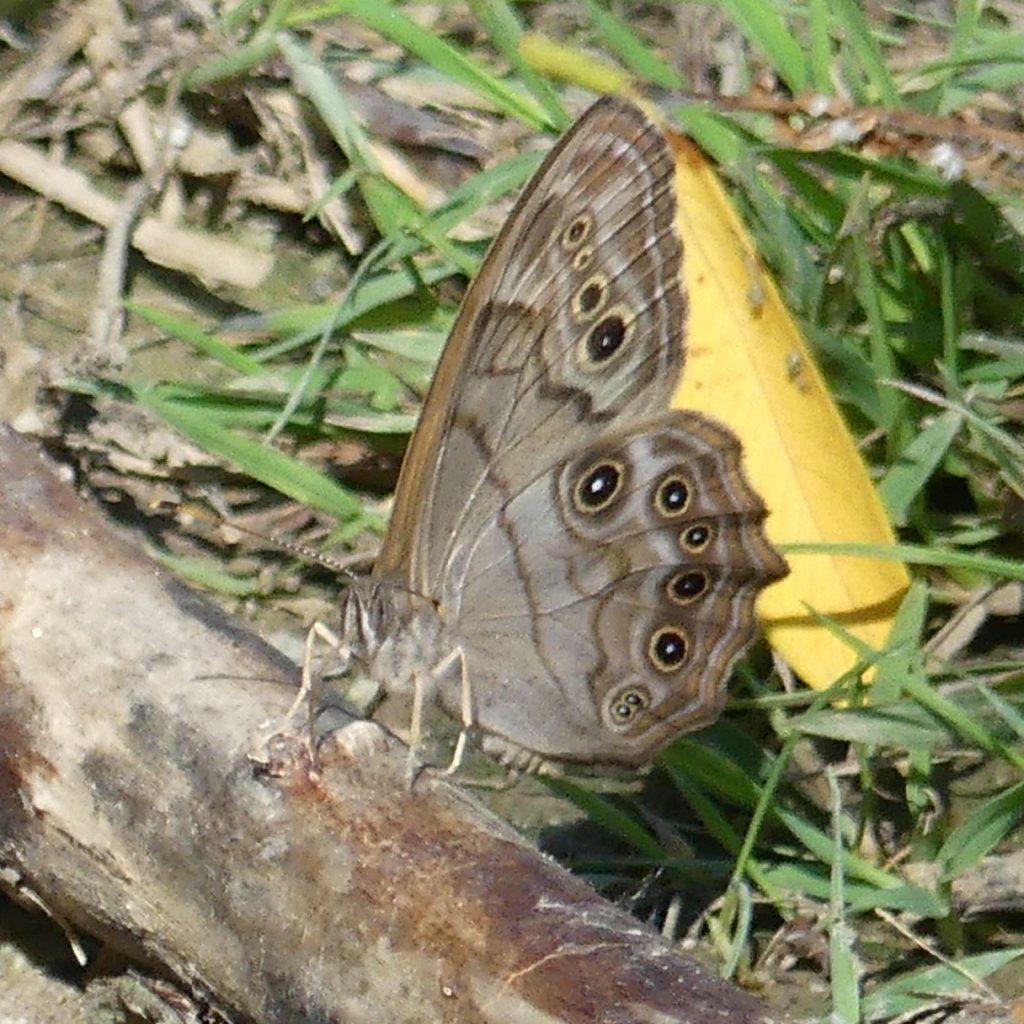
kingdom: Animalia
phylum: Arthropoda
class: Insecta
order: Lepidoptera
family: Nymphalidae
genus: Lethe
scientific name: Lethe anthedon
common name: Northern Pearly-Eye
